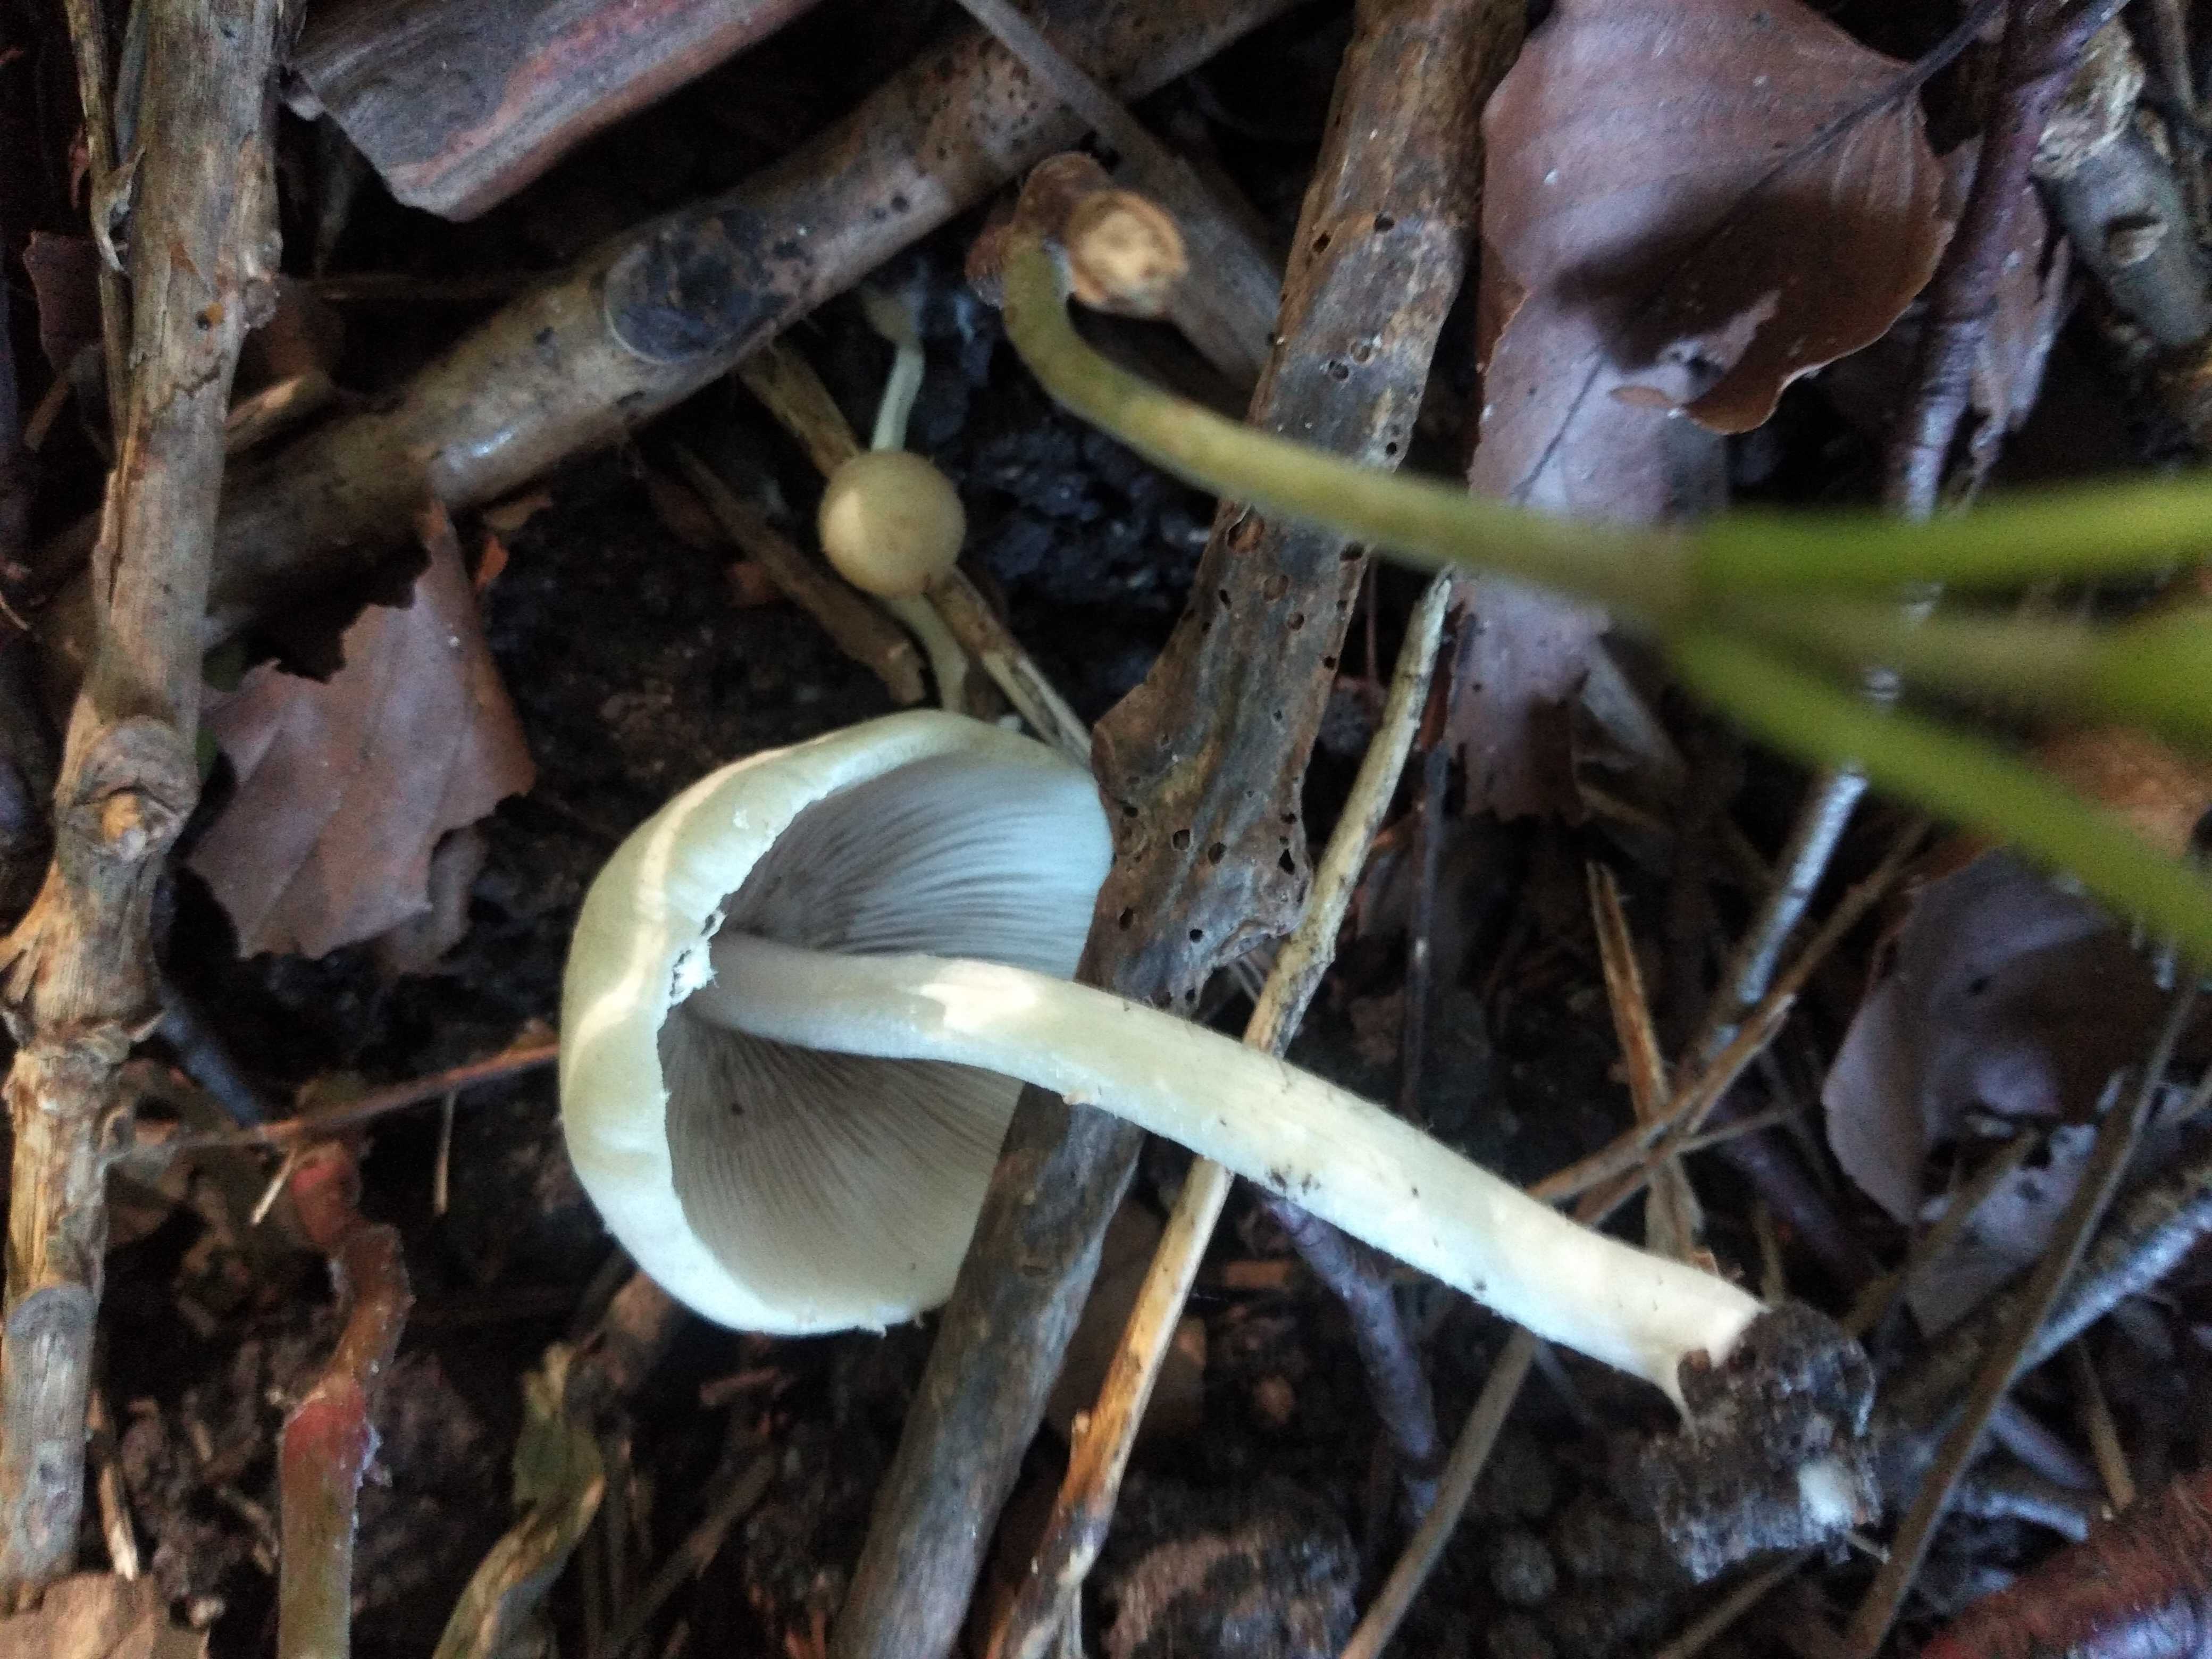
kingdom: Fungi
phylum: Basidiomycota
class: Agaricomycetes
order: Agaricales
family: Psathyrellaceae
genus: Candolleomyces
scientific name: Candolleomyces candolleanus
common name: Candolles mørkhat
